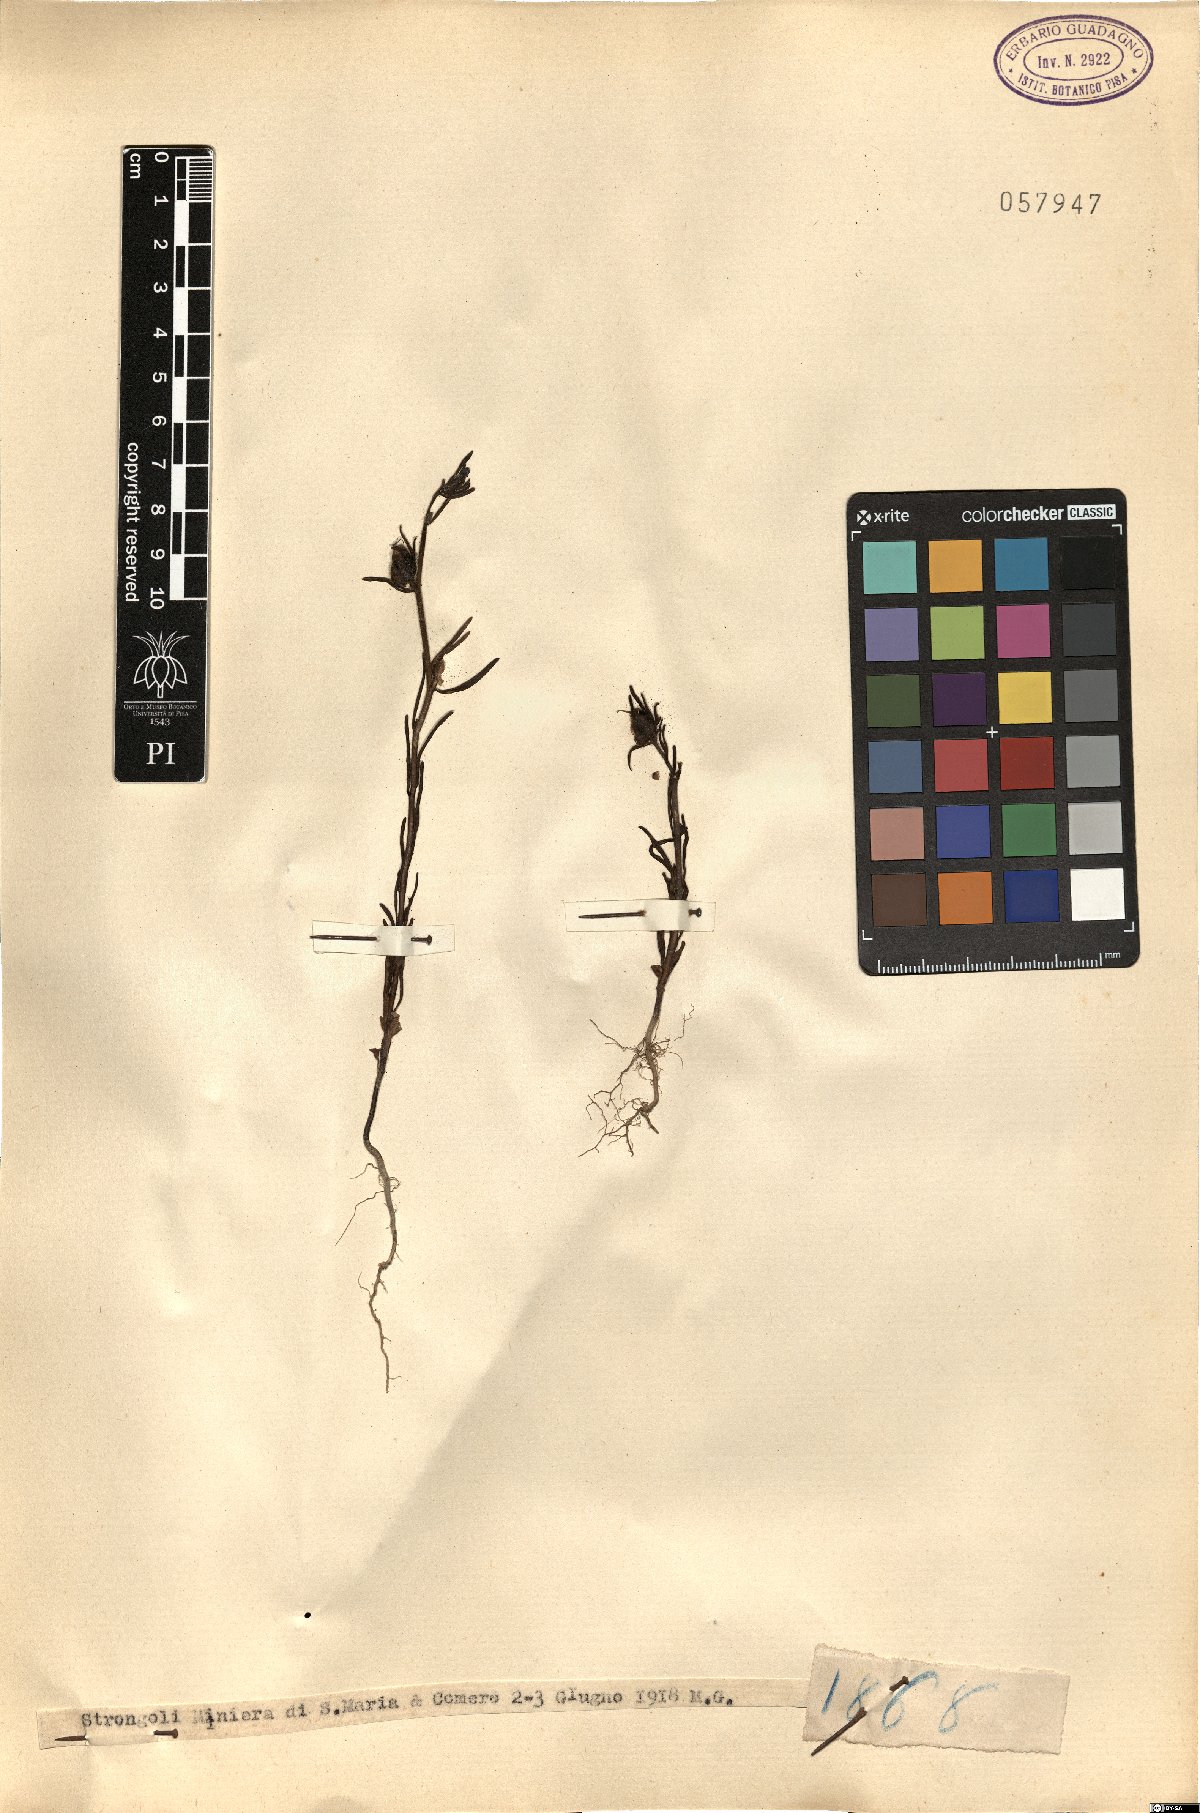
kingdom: Plantae
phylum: Tracheophyta
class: Magnoliopsida
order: Lamiales
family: Plantaginaceae
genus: Antirrhinum
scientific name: Antirrhinum
